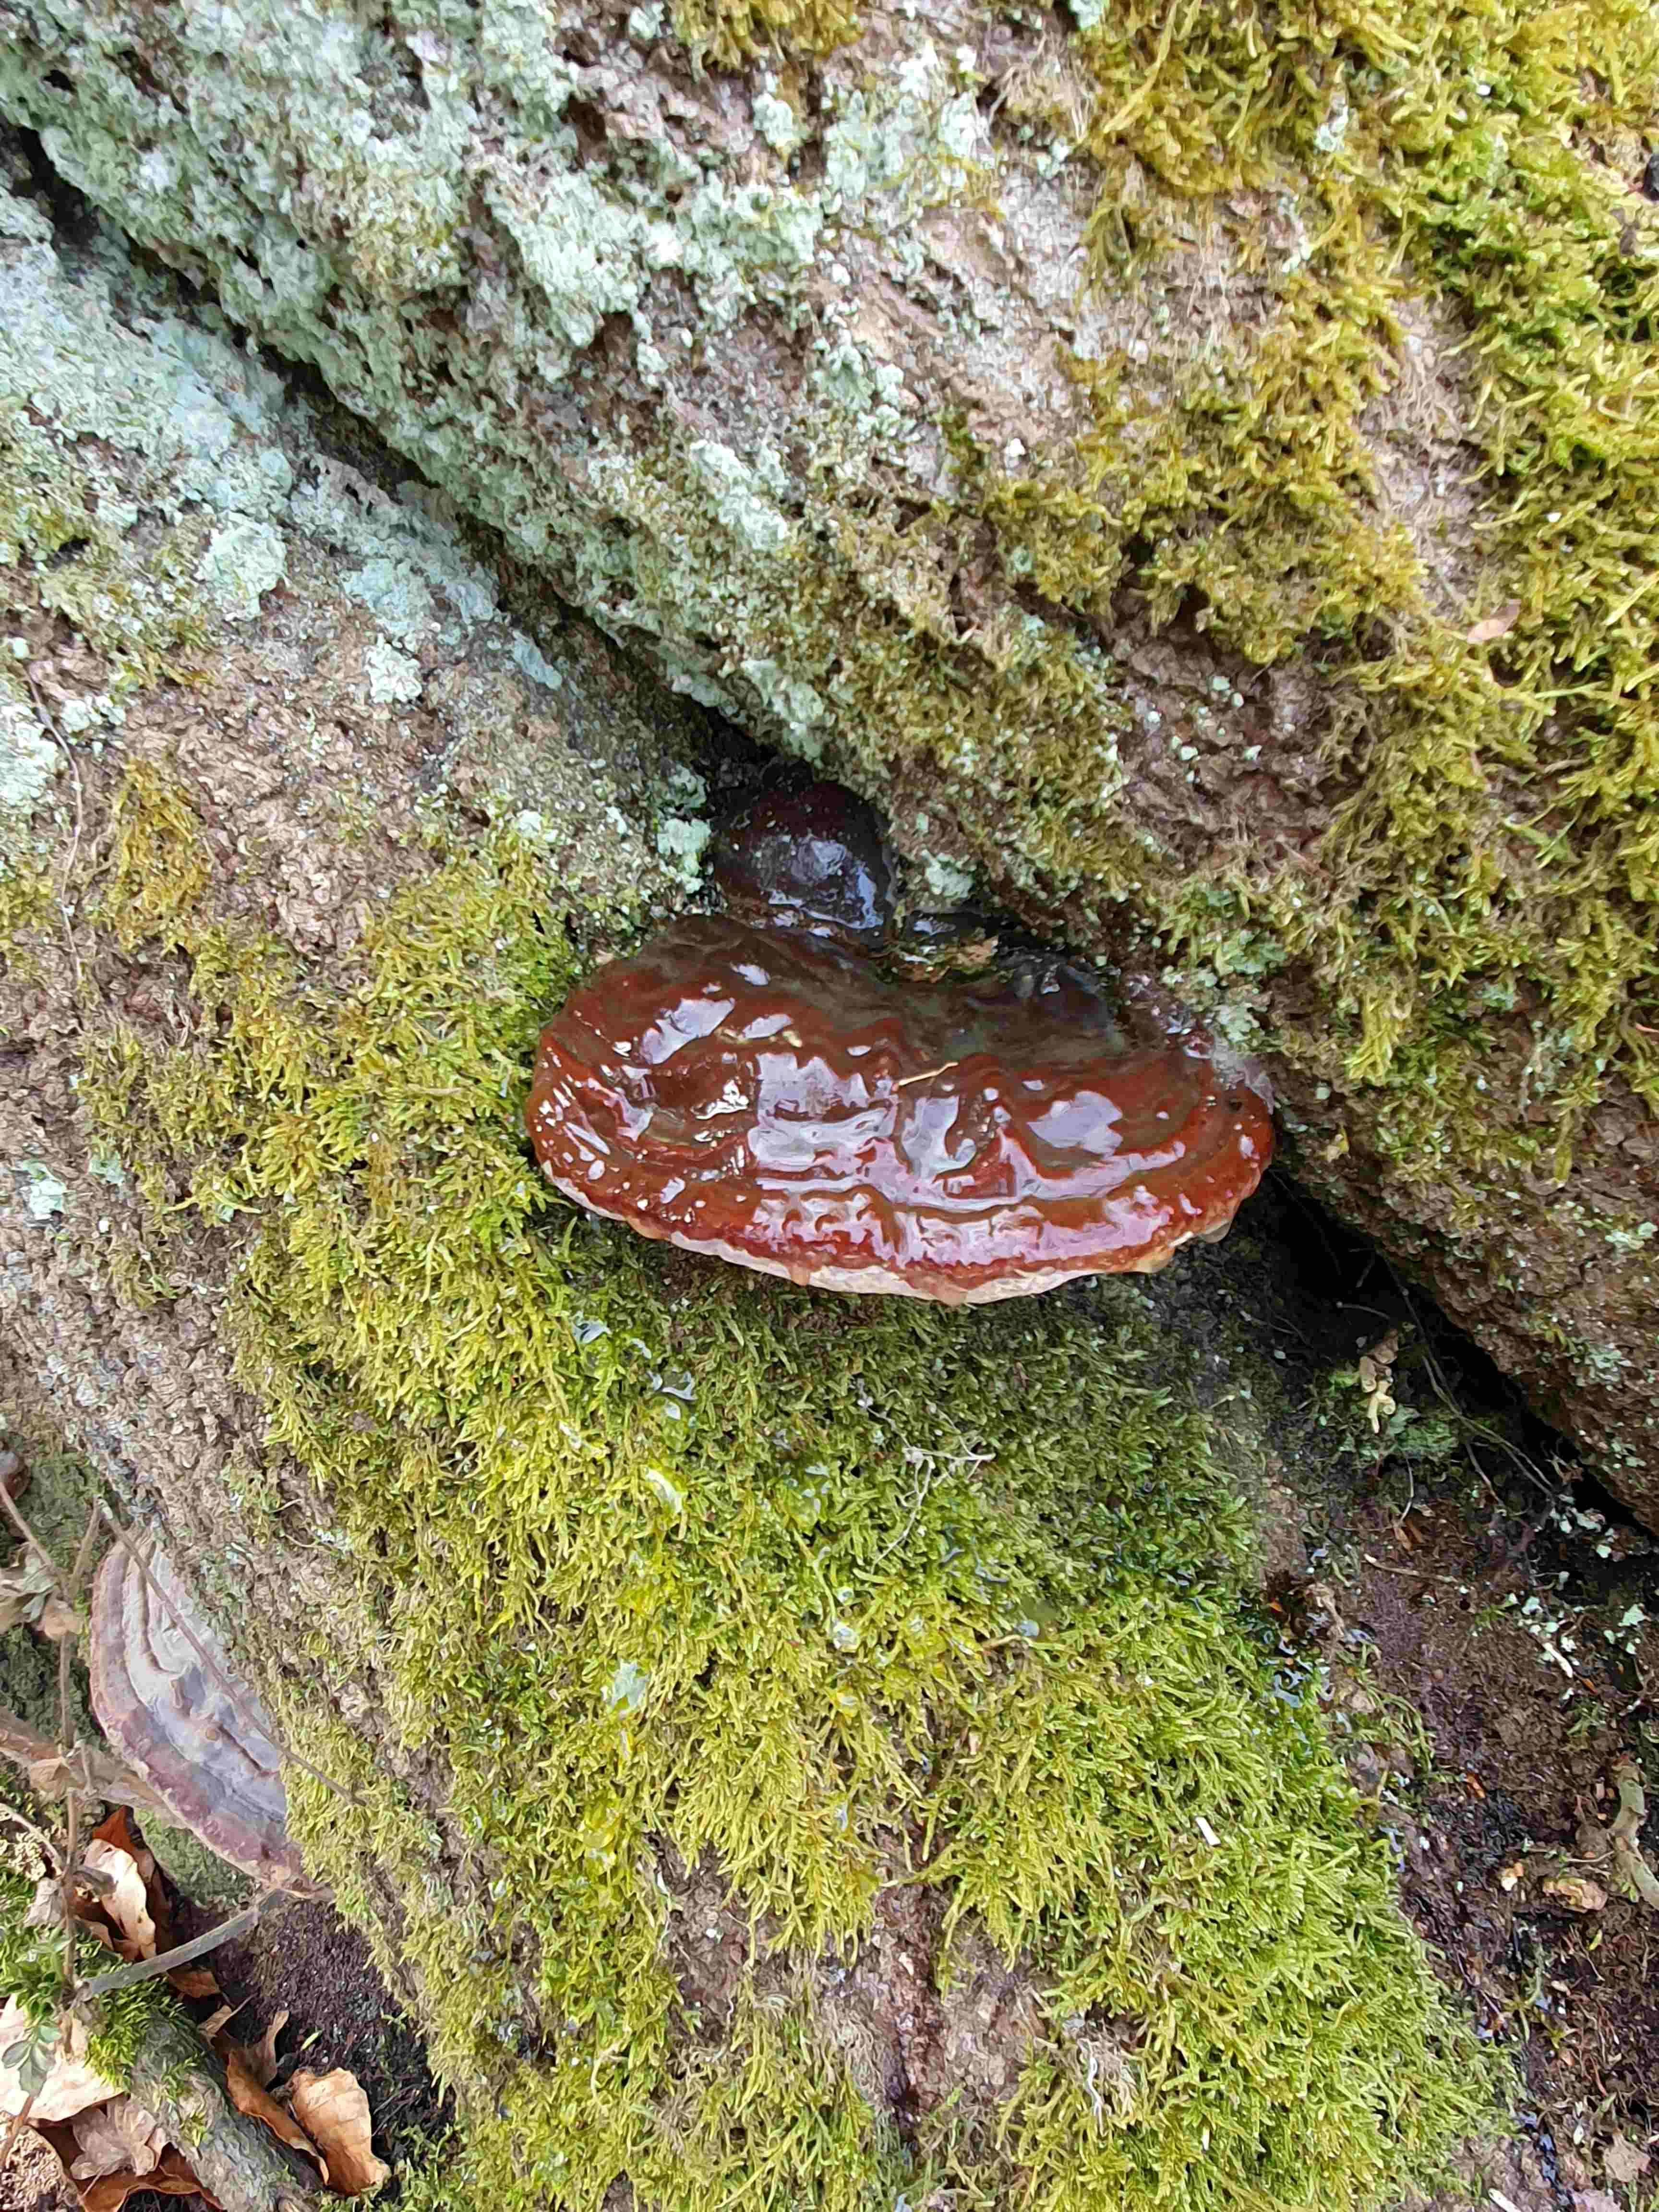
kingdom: Fungi
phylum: Basidiomycota
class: Agaricomycetes
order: Polyporales
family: Polyporaceae
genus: Ganoderma
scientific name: Ganoderma pfeifferi
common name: kobberrød lakporesvamp
